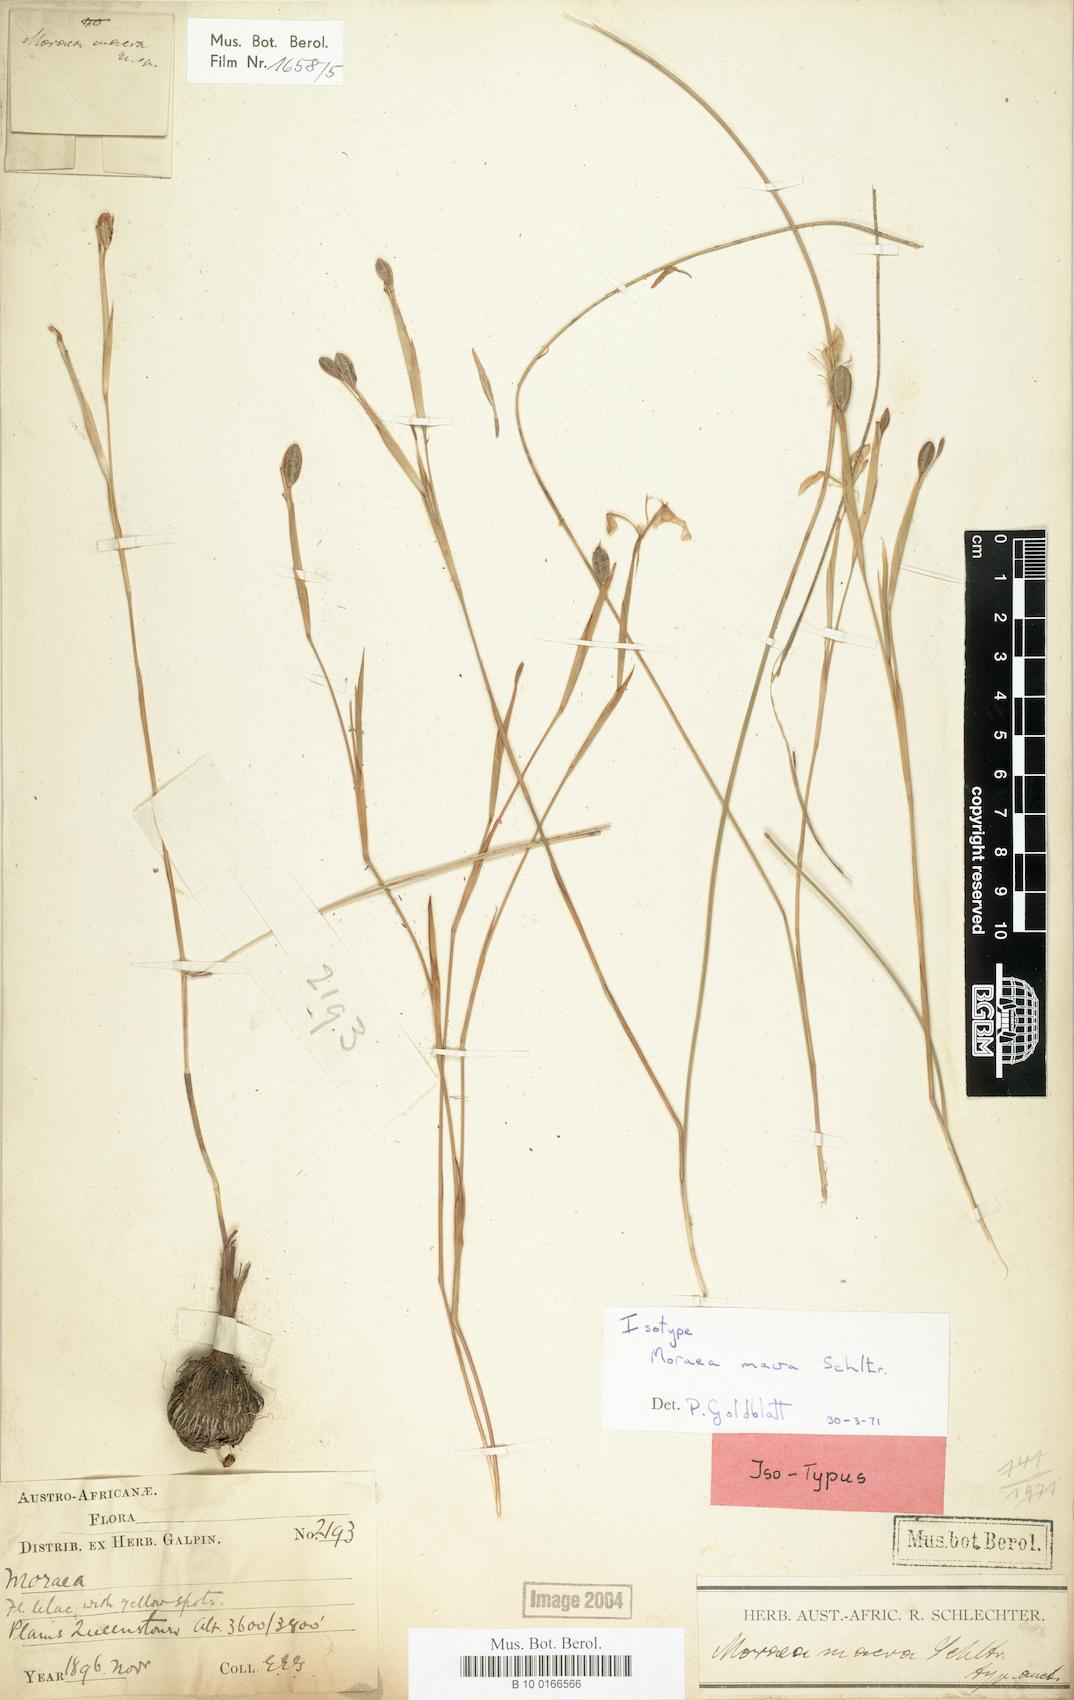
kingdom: Plantae
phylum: Tracheophyta
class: Liliopsida
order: Asparagales
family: Iridaceae
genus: Moraea
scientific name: Moraea elliotii
